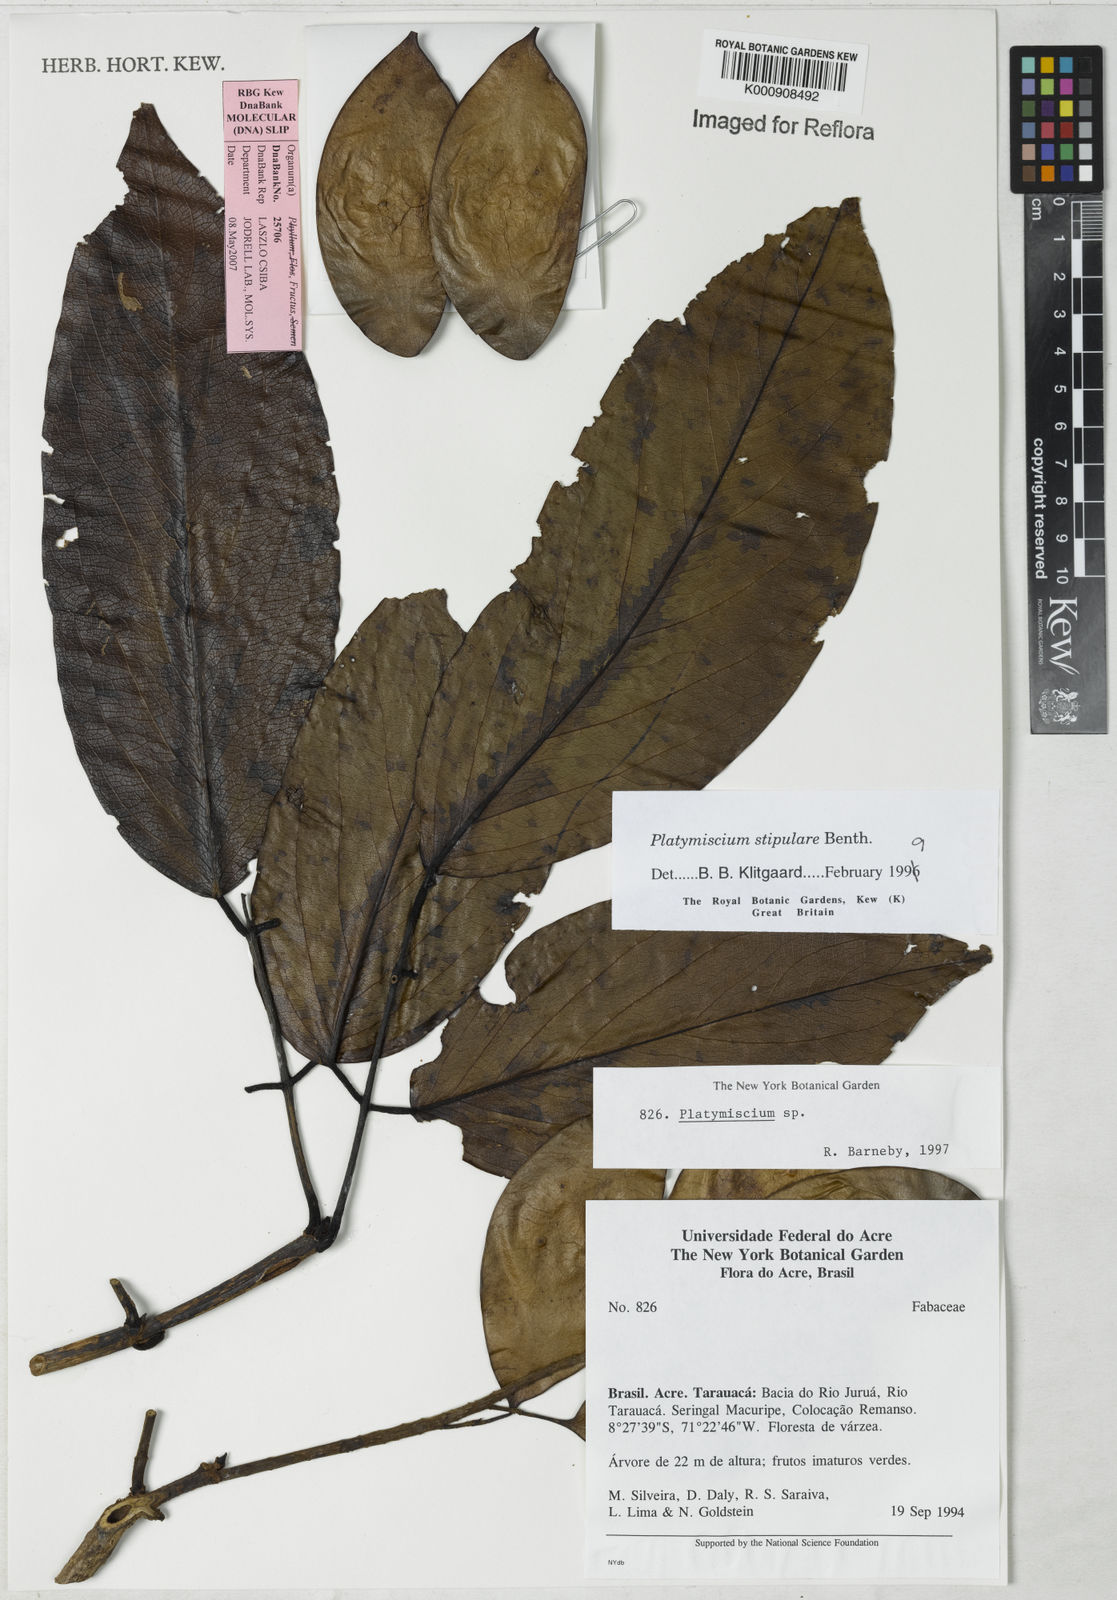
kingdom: Plantae
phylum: Tracheophyta
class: Magnoliopsida
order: Fabales
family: Fabaceae
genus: Platymiscium
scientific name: Platymiscium stipulare
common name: Legume
